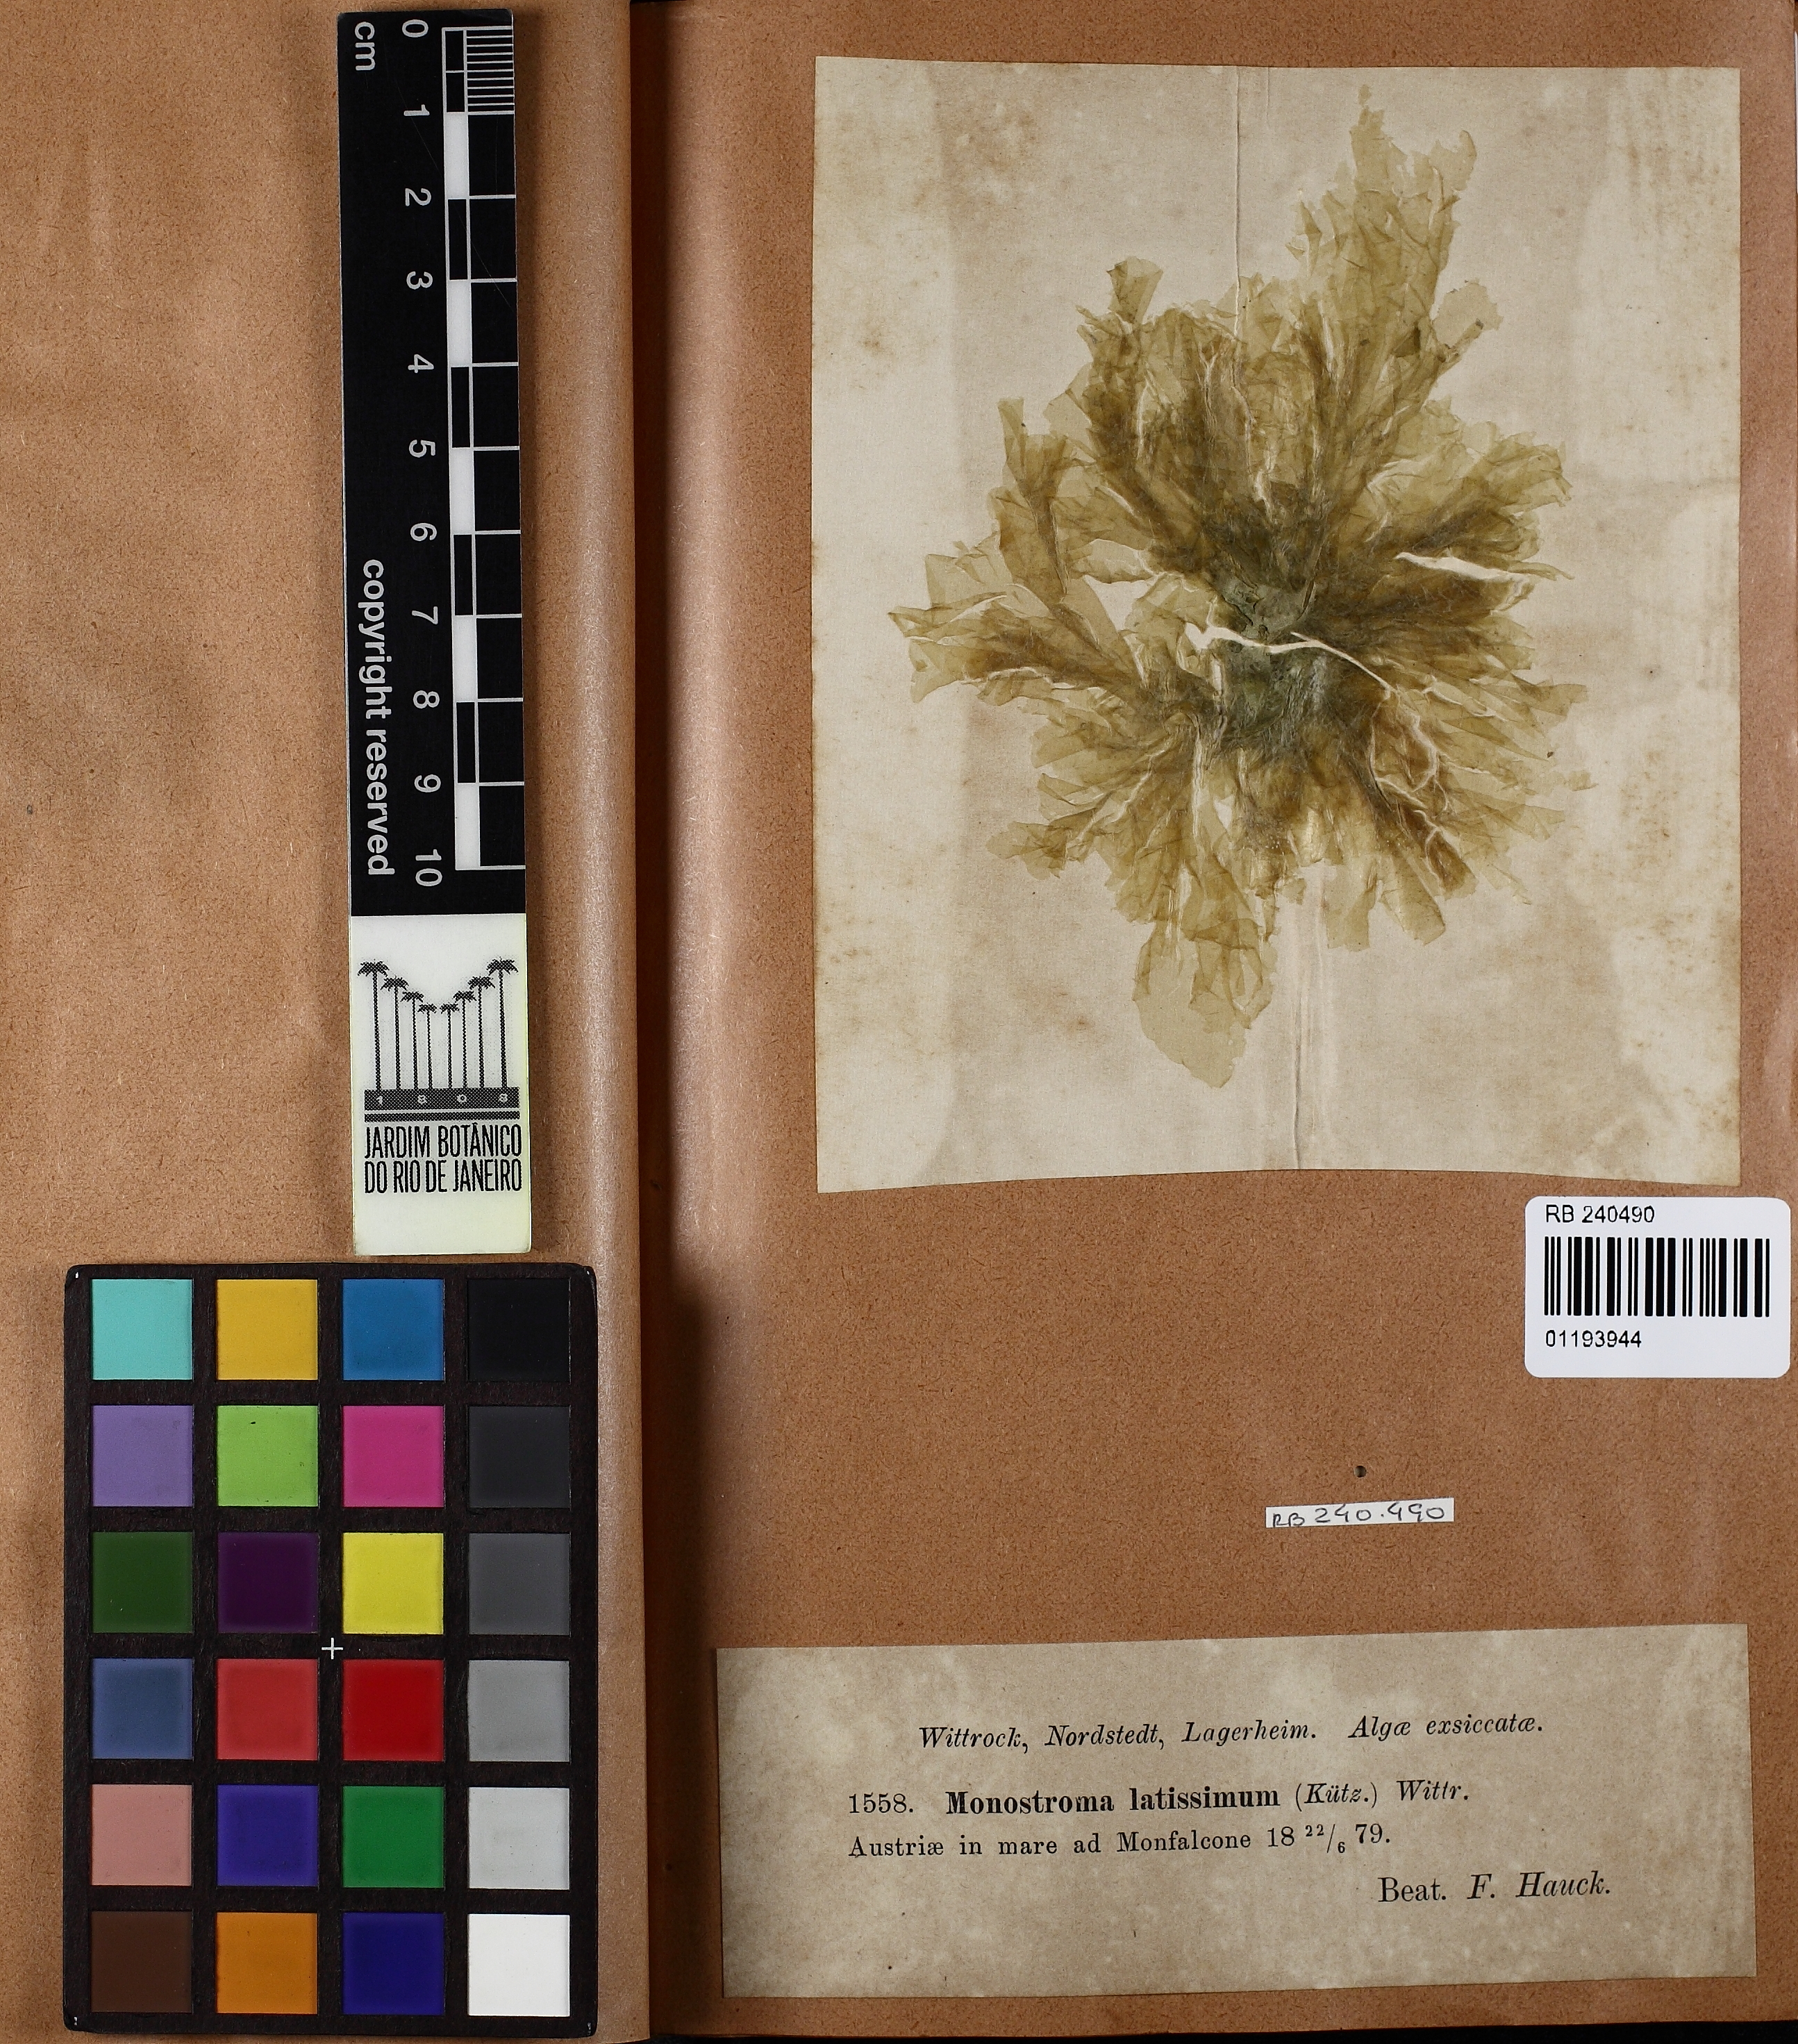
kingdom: Plantae
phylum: Chlorophyta
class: Ulvophyceae
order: Ulvales
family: Monostromataceae
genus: Monostroma
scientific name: Monostroma latissimum
